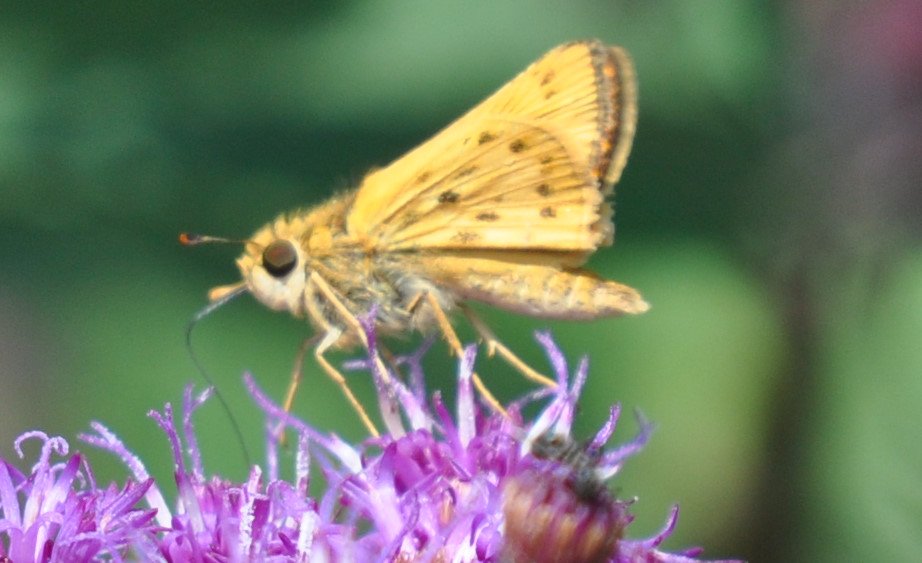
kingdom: Animalia
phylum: Arthropoda
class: Insecta
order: Lepidoptera
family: Hesperiidae
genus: Hylephila
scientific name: Hylephila phyleus
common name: Fiery Skipper
